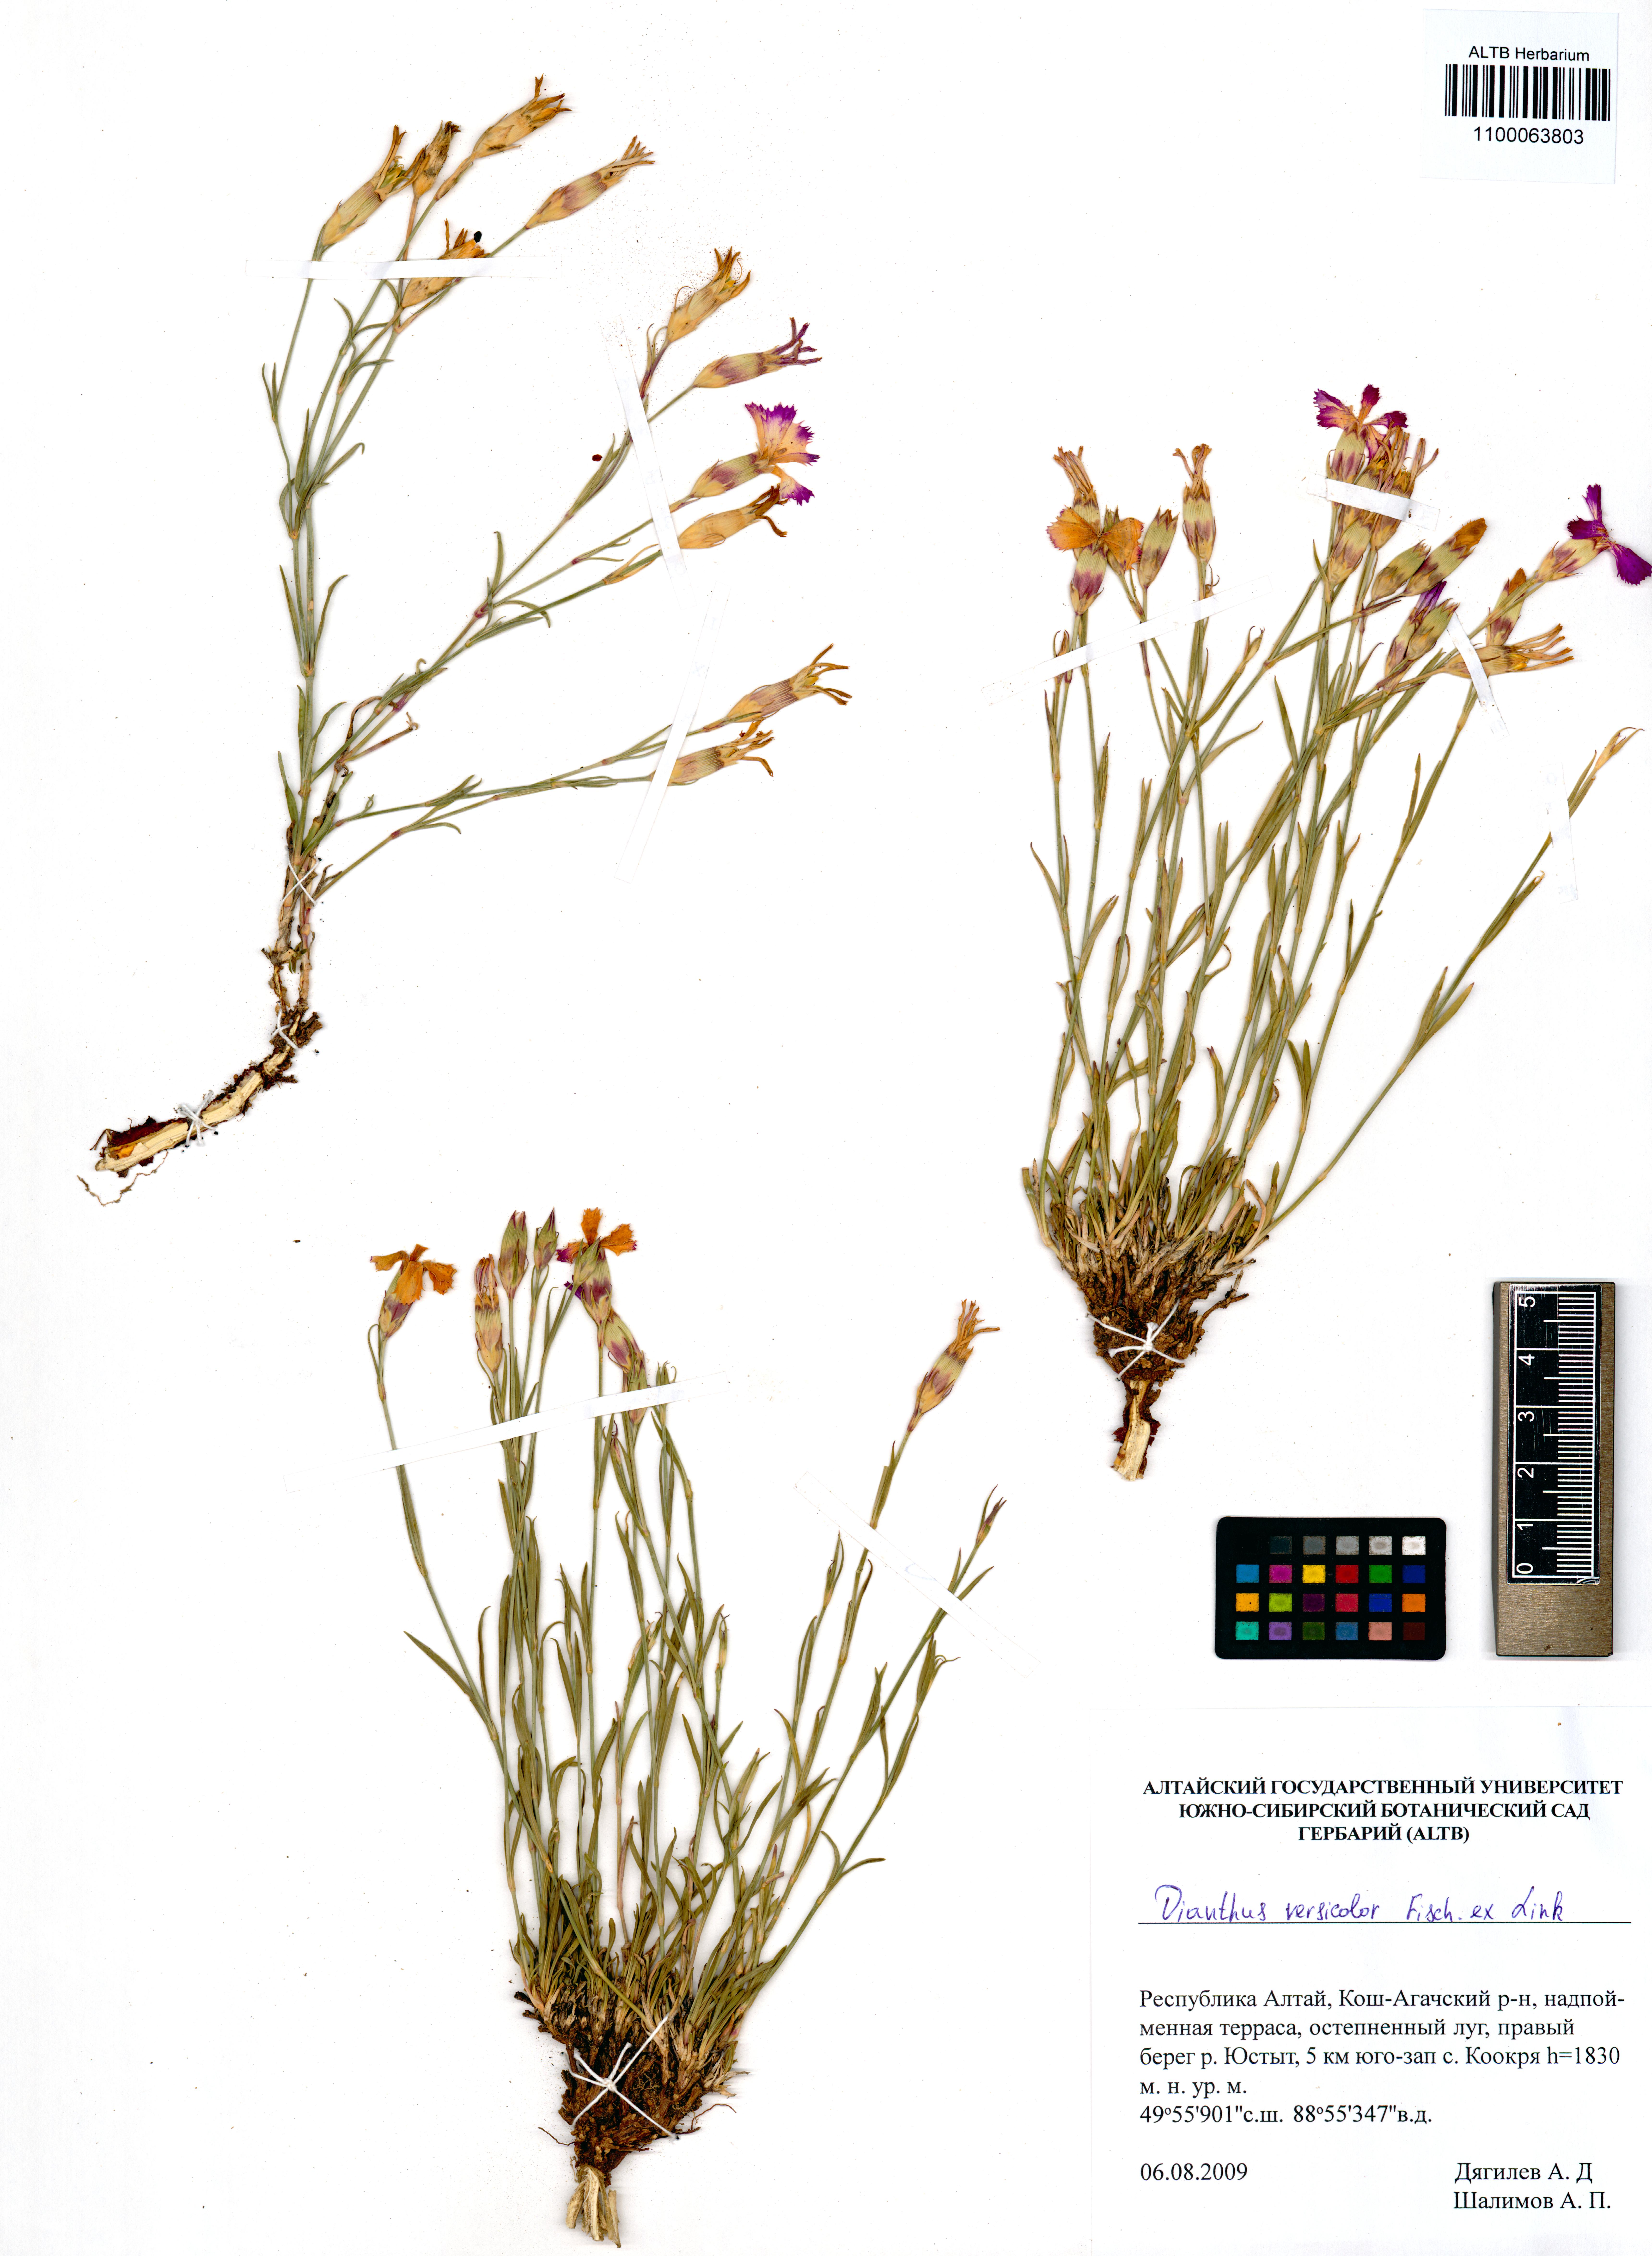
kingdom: Plantae
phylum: Tracheophyta
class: Magnoliopsida
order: Caryophyllales
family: Caryophyllaceae
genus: Dianthus
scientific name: Dianthus chinensis
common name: Rainbow pink
